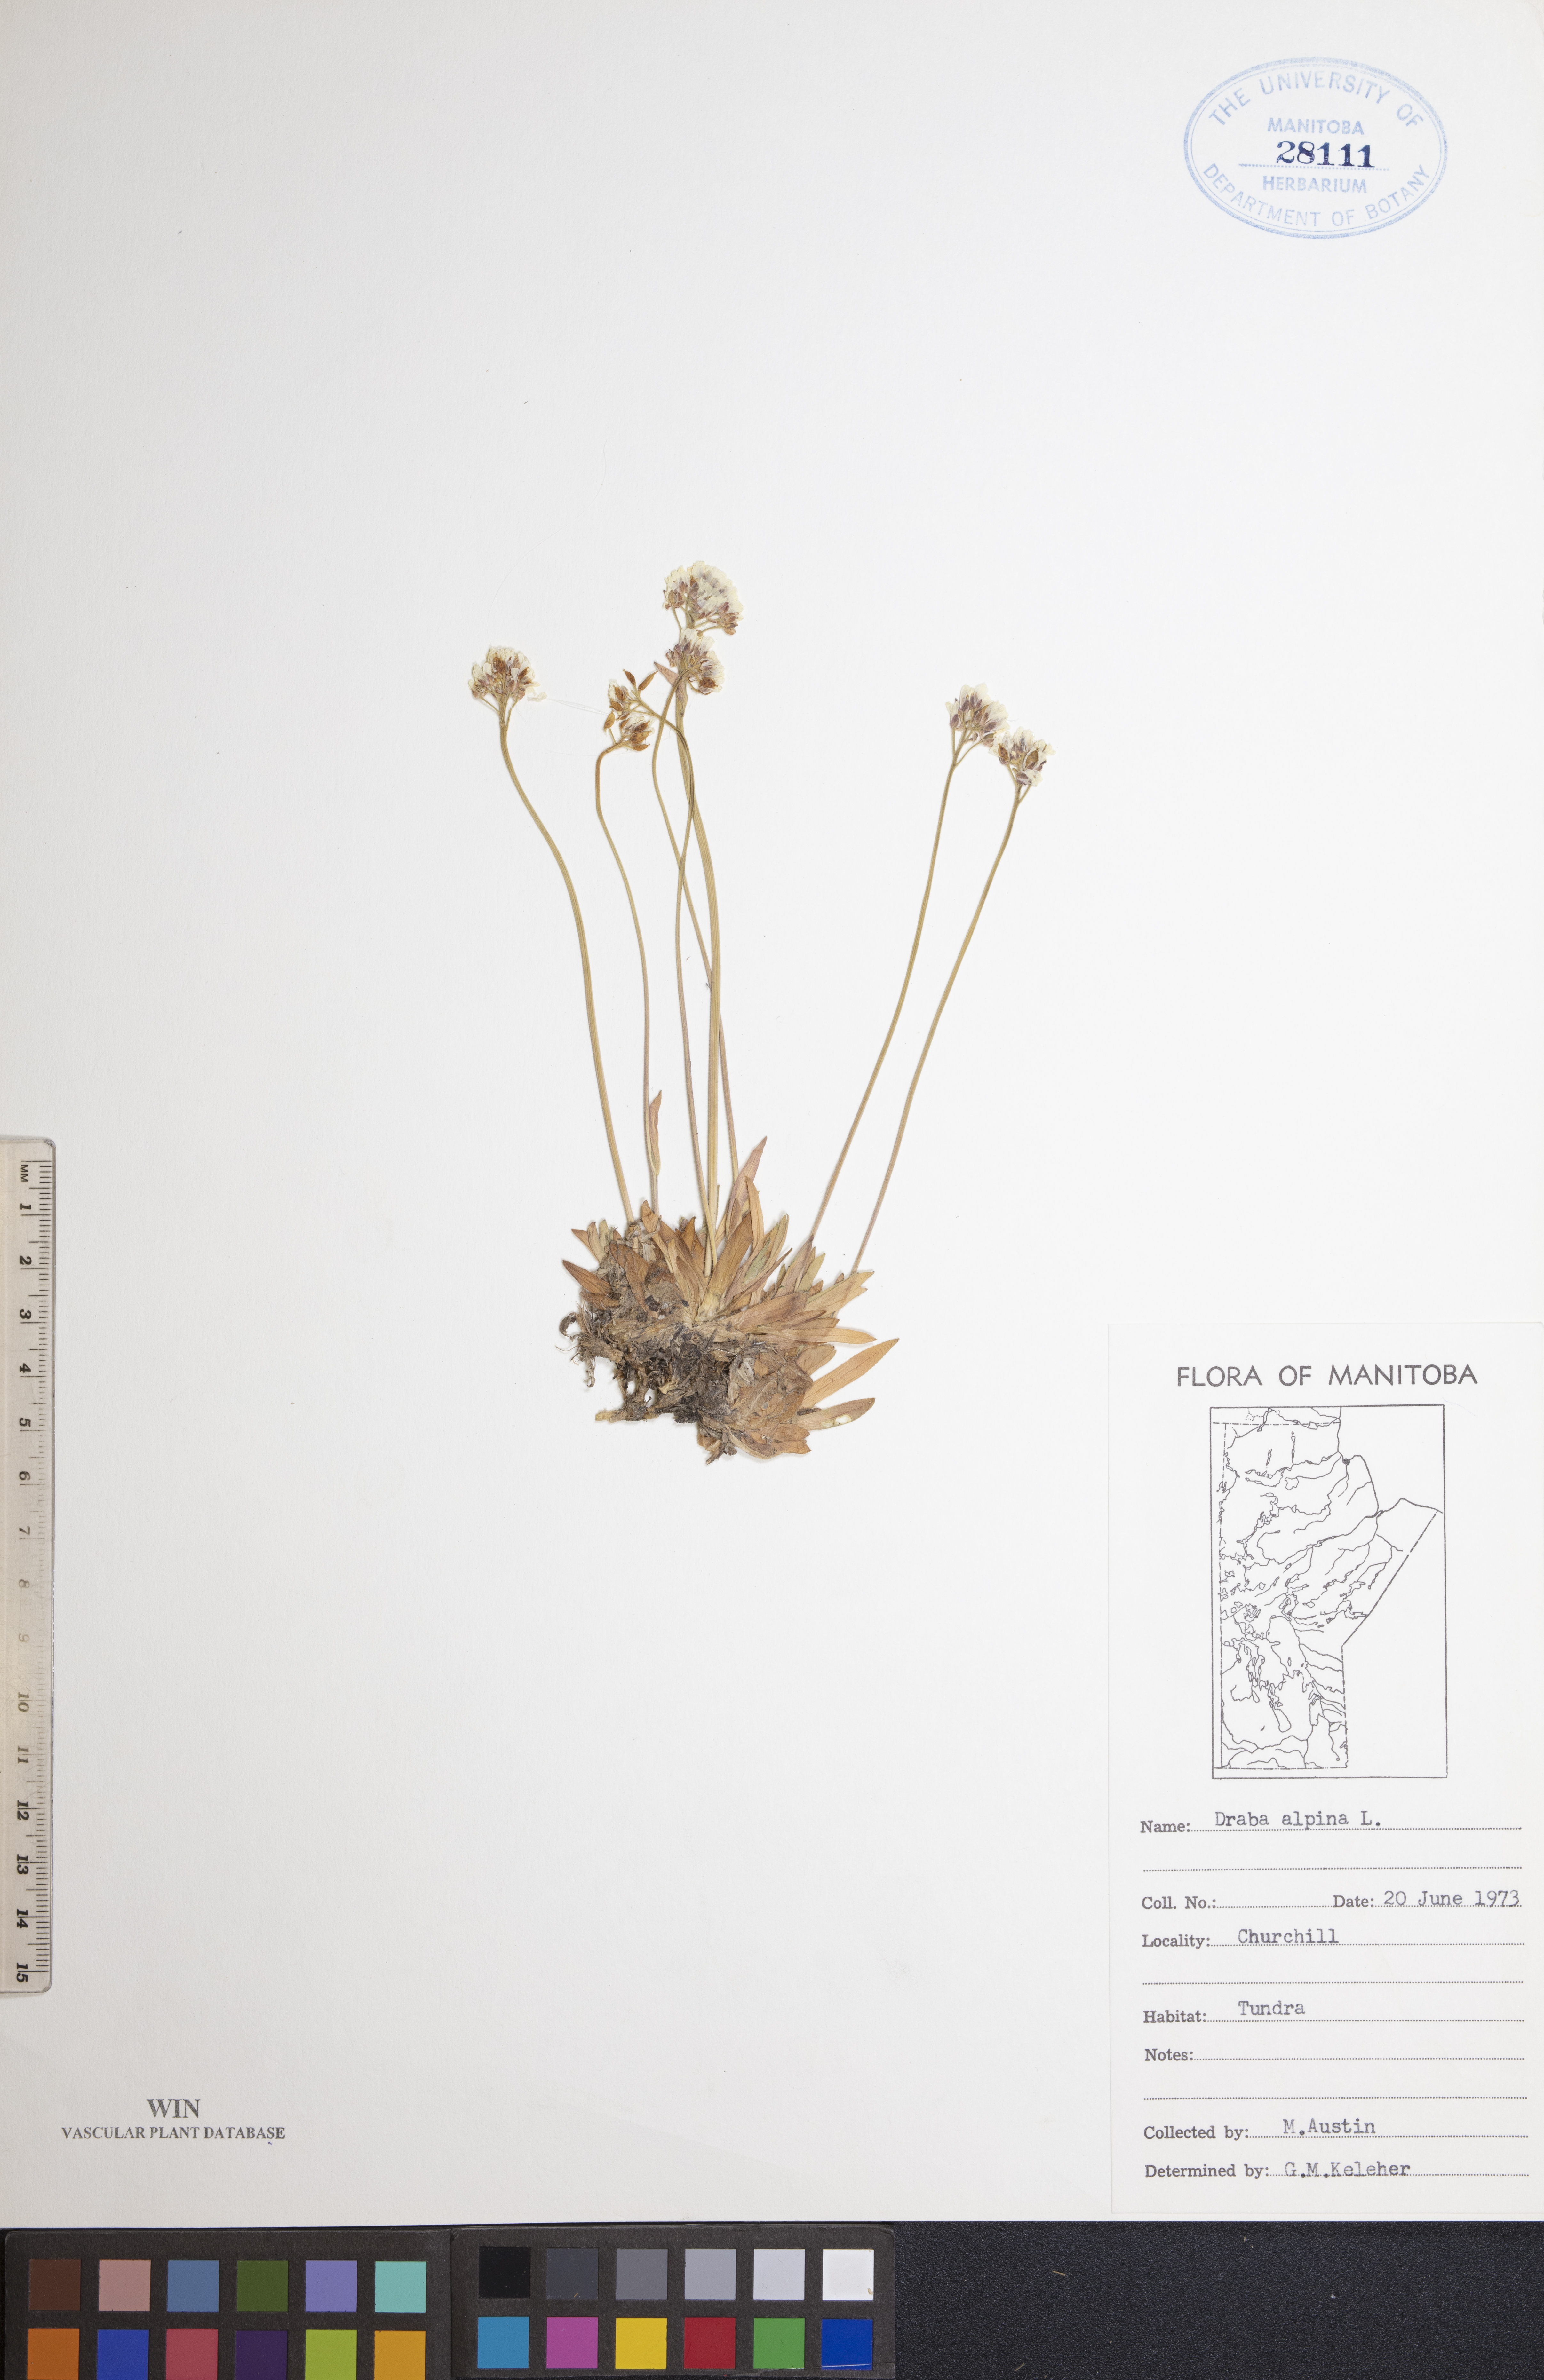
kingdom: Plantae
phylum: Tracheophyta
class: Magnoliopsida
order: Brassicales
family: Brassicaceae
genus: Draba
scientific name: Draba alpina
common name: Alpine draba
